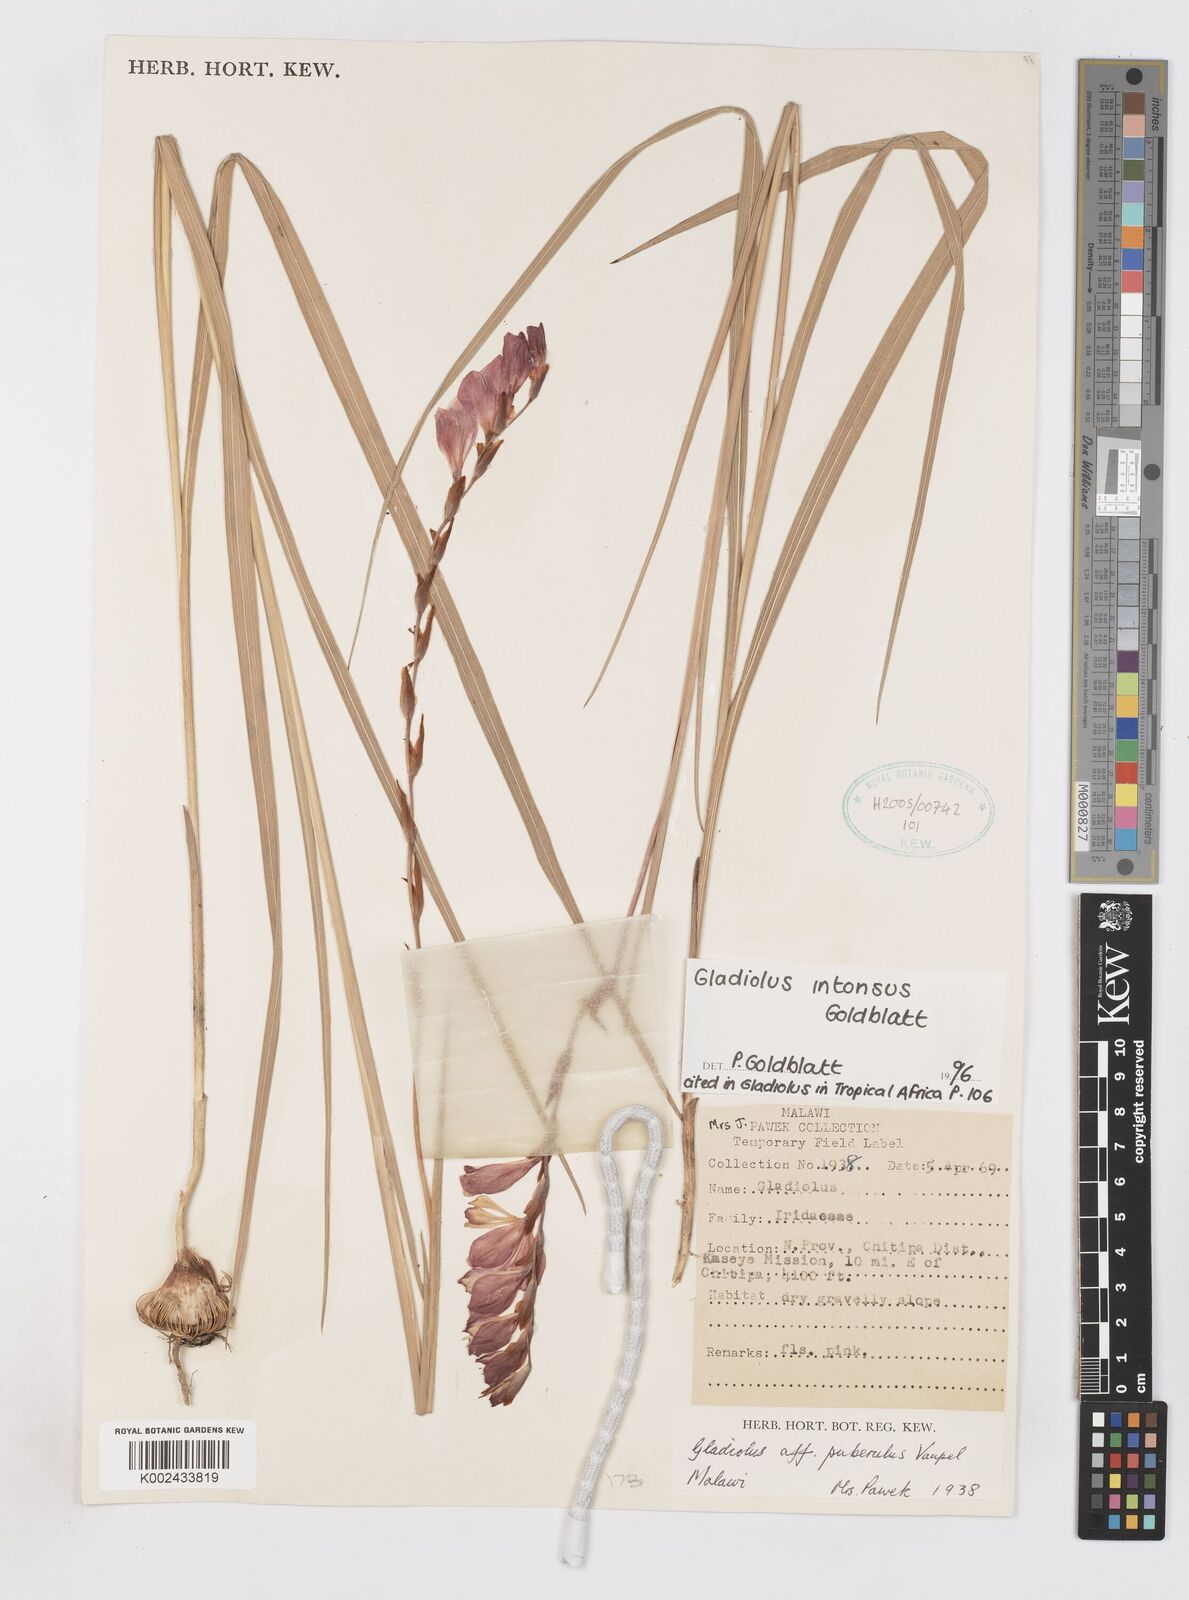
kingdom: Plantae
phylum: Tracheophyta
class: Liliopsida
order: Asparagales
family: Iridaceae
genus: Gladiolus
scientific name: Gladiolus intonsus
